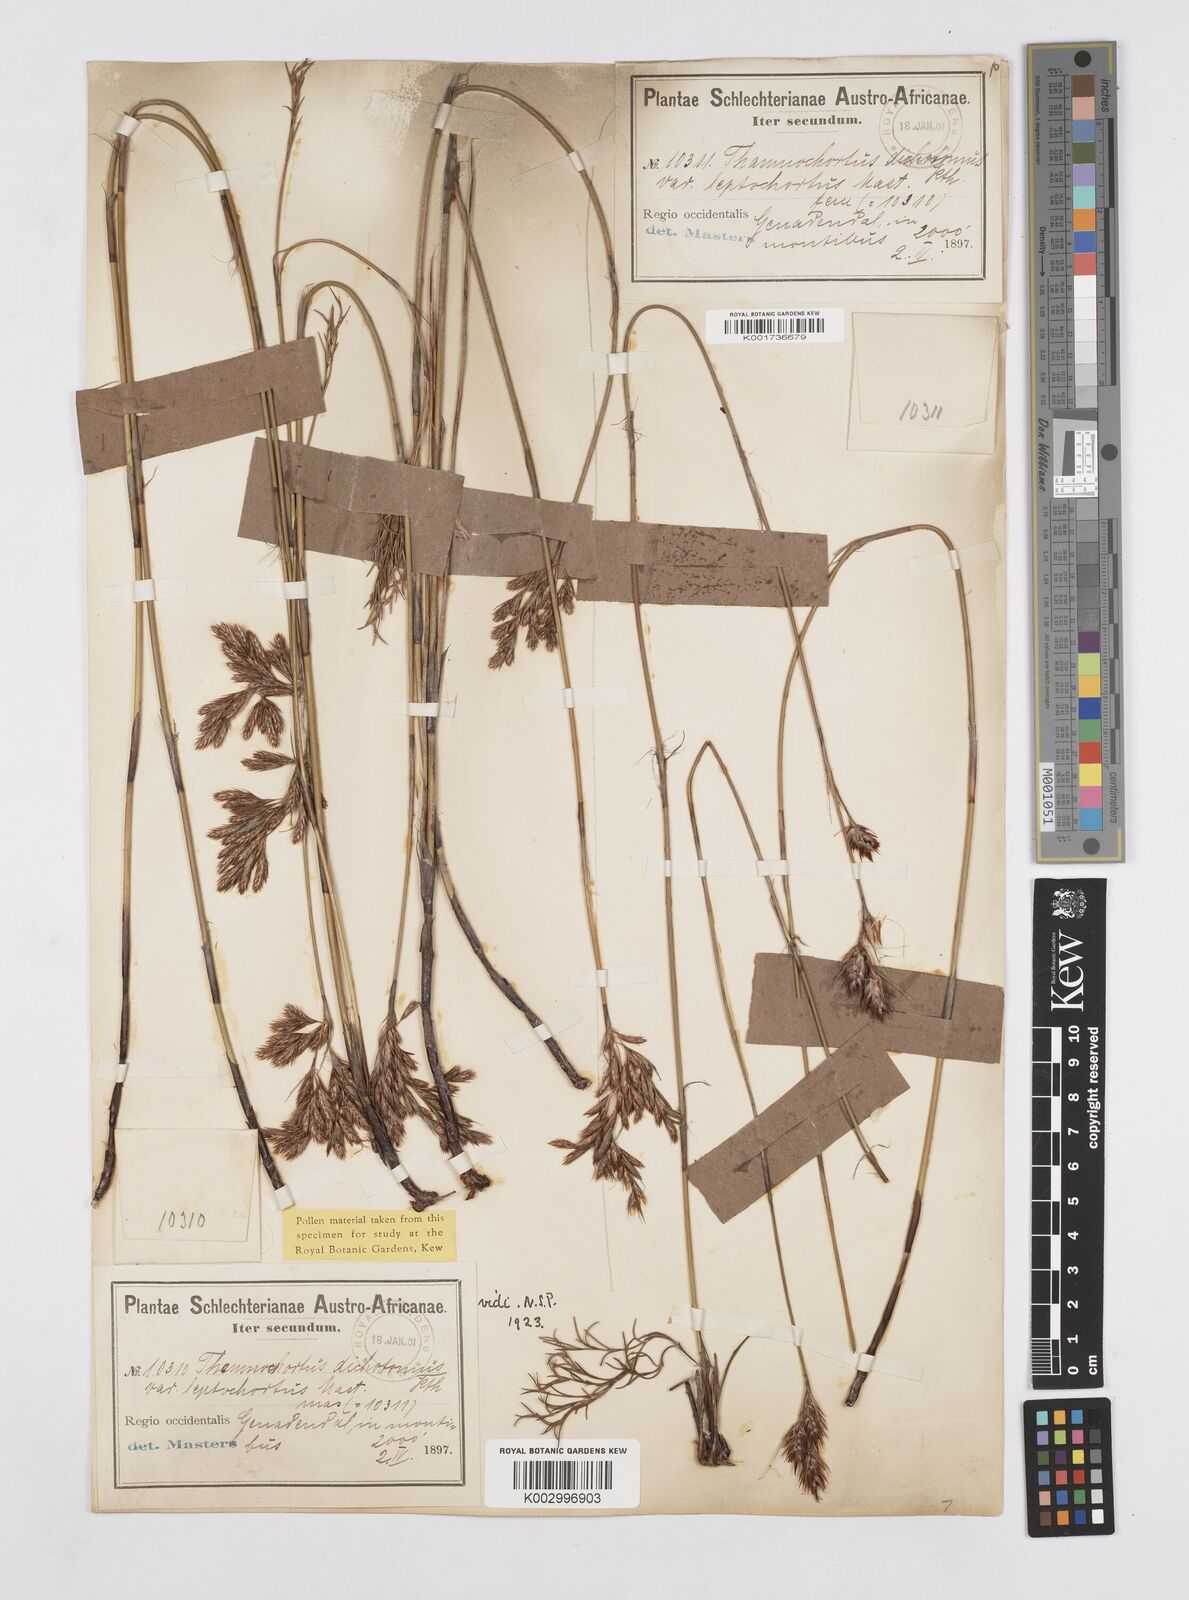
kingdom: Plantae
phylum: Tracheophyta
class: Liliopsida
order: Poales
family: Restionaceae
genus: Thamnochortus
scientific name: Thamnochortus lucens
